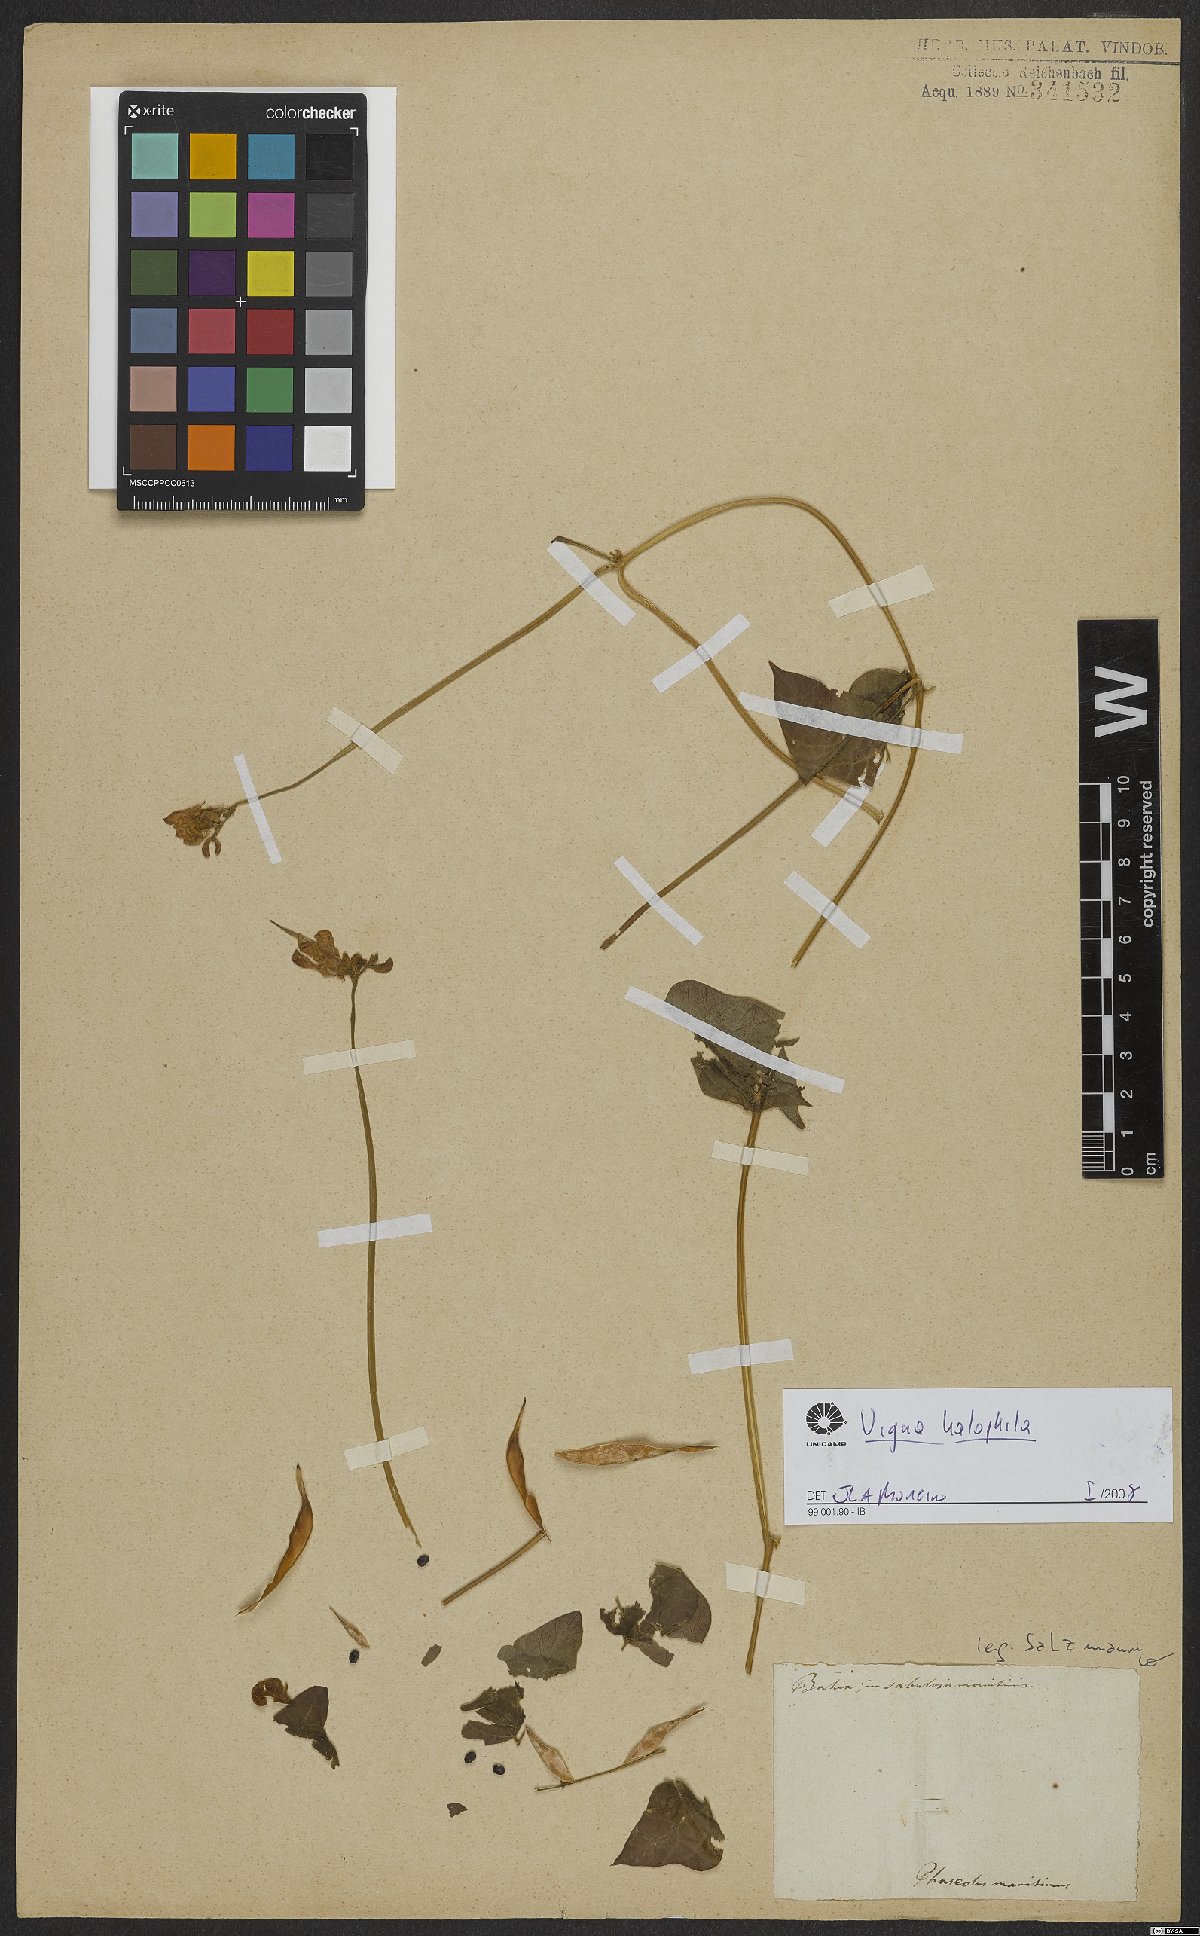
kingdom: Plantae
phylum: Tracheophyta
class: Magnoliopsida
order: Fabales
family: Fabaceae
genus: Vigna
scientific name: Vigna halophila
